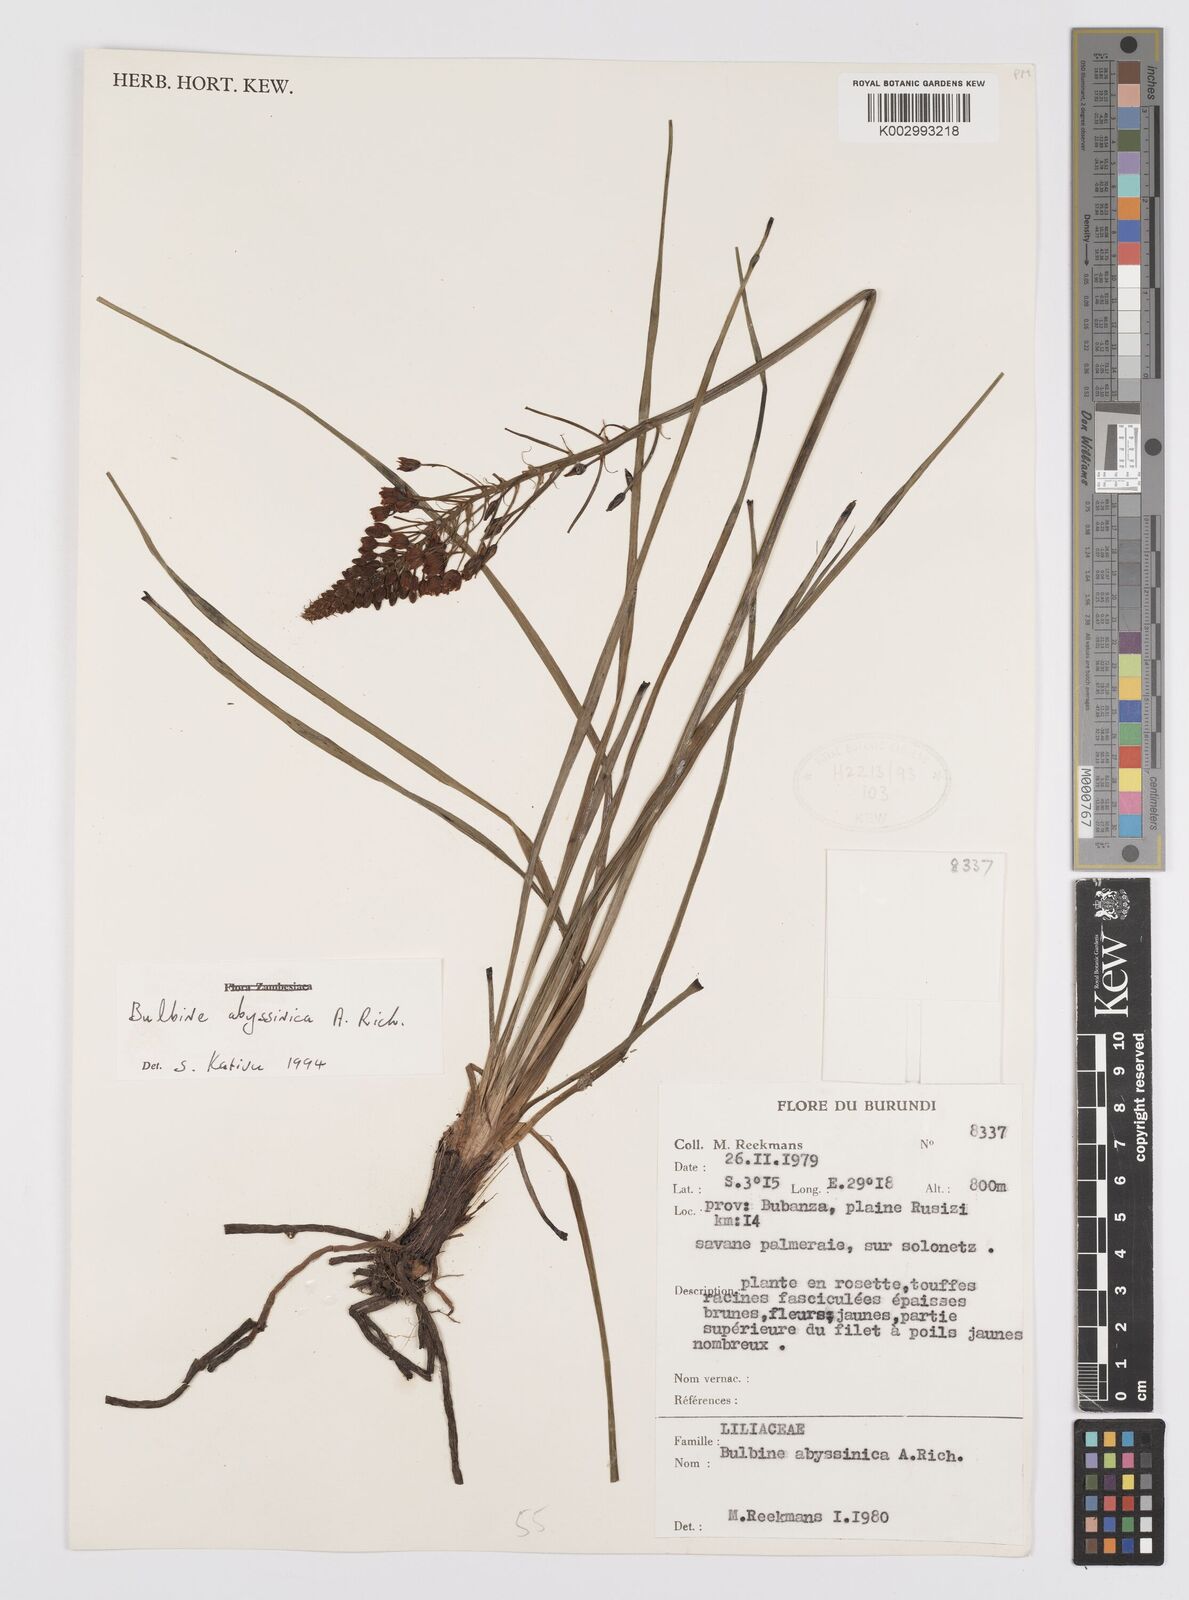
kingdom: Plantae
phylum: Tracheophyta
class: Liliopsida
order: Asparagales
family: Asphodelaceae
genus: Bulbine
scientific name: Bulbine abyssinica
